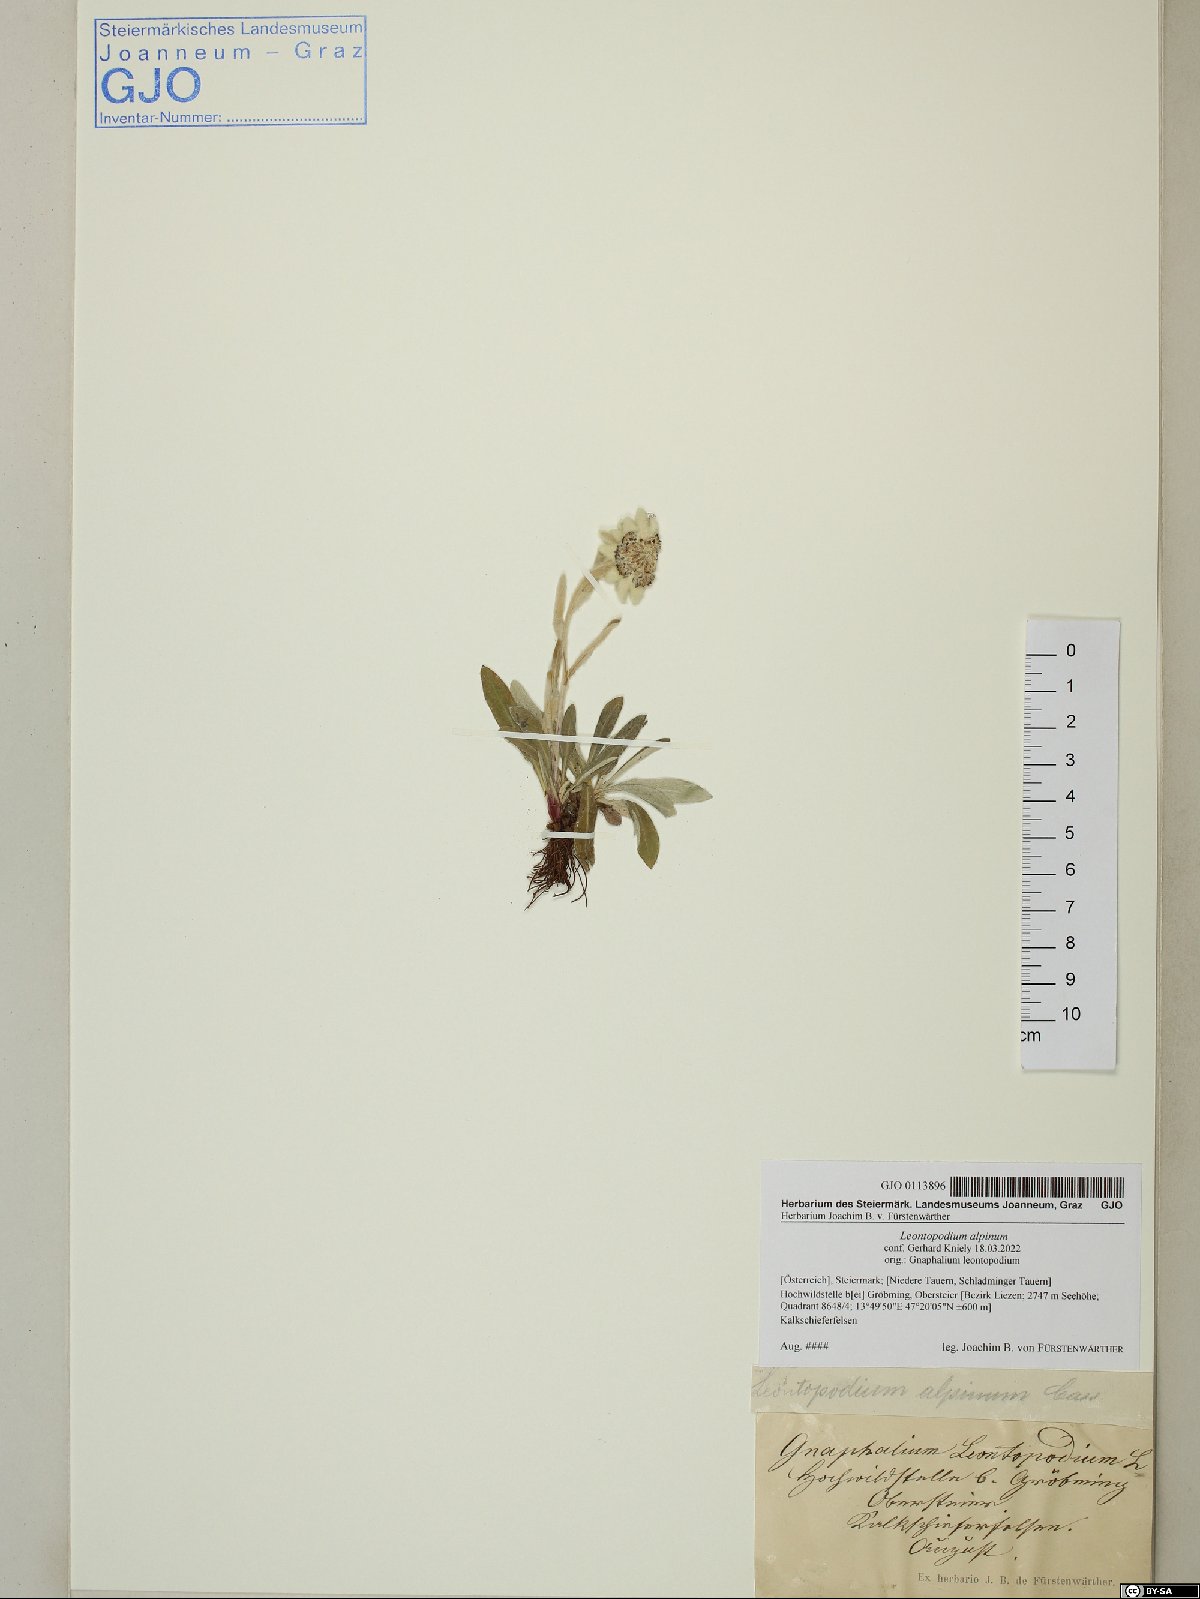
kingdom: Plantae
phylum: Tracheophyta
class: Magnoliopsida
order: Asterales
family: Asteraceae
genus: Leontopodium
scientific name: Leontopodium nivale
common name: Edelweiss
